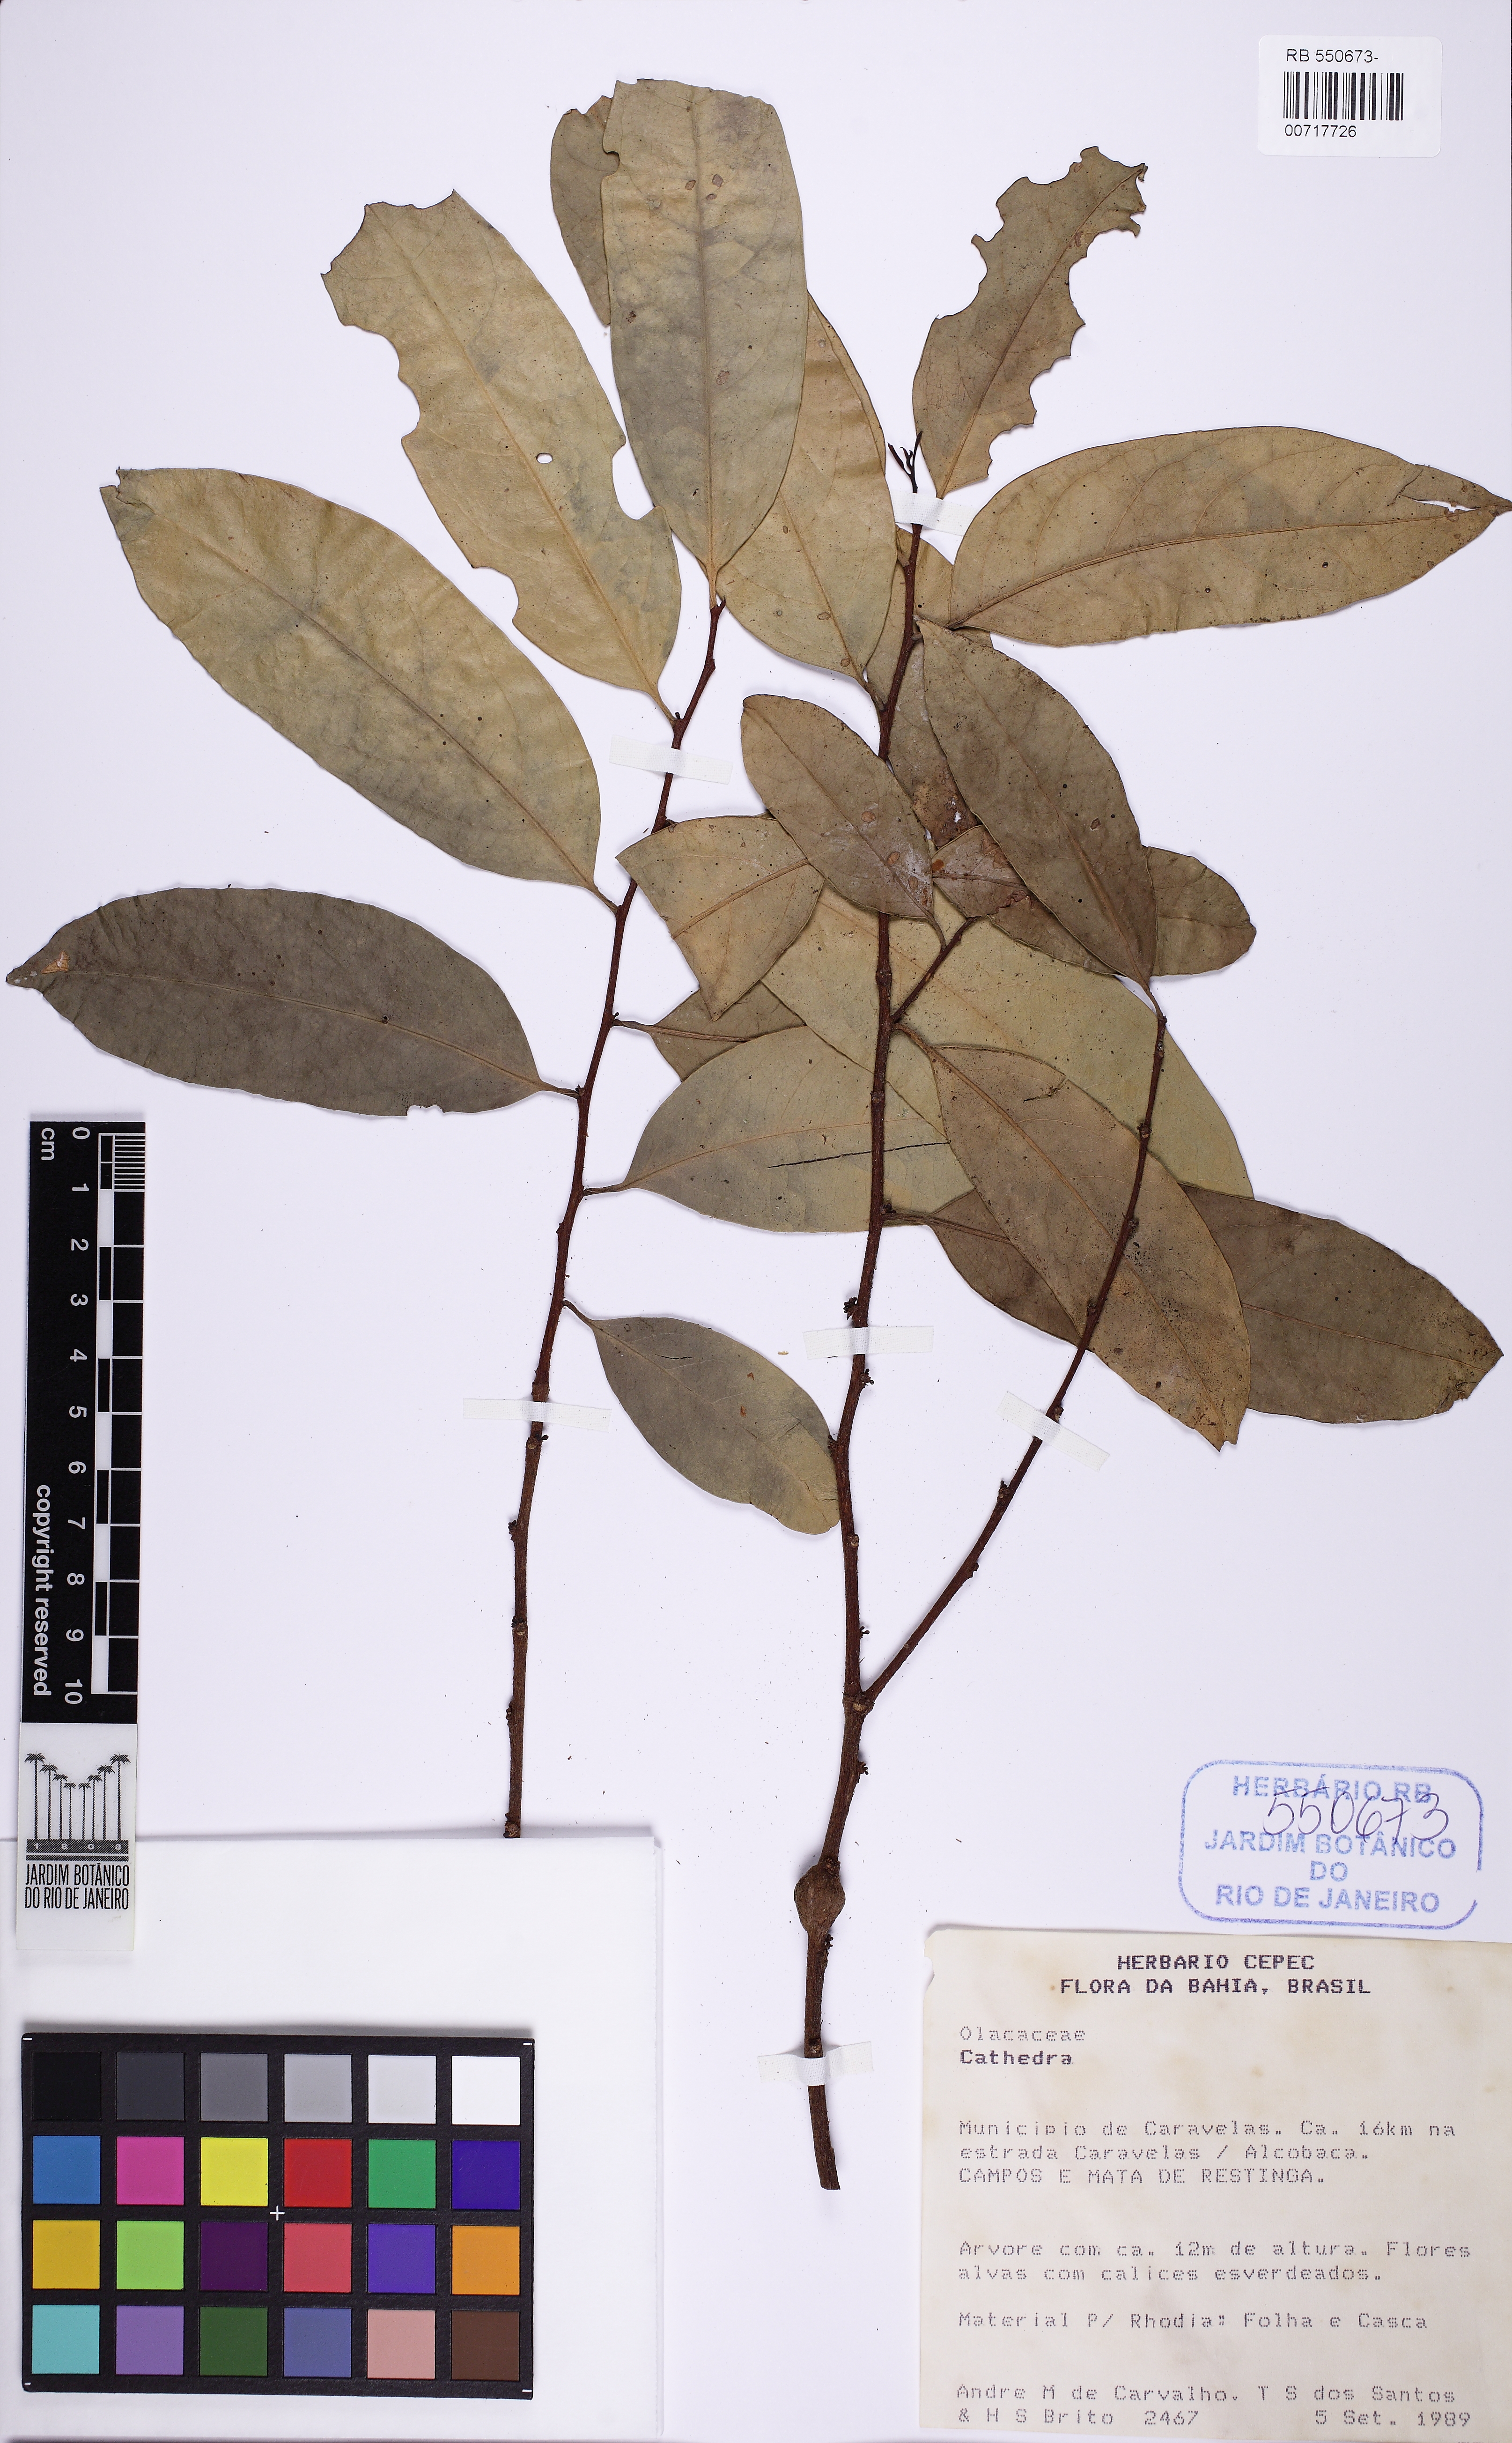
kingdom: Plantae
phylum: Tracheophyta
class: Magnoliopsida
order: Santalales
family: Olacaceae
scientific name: Olacaceae
